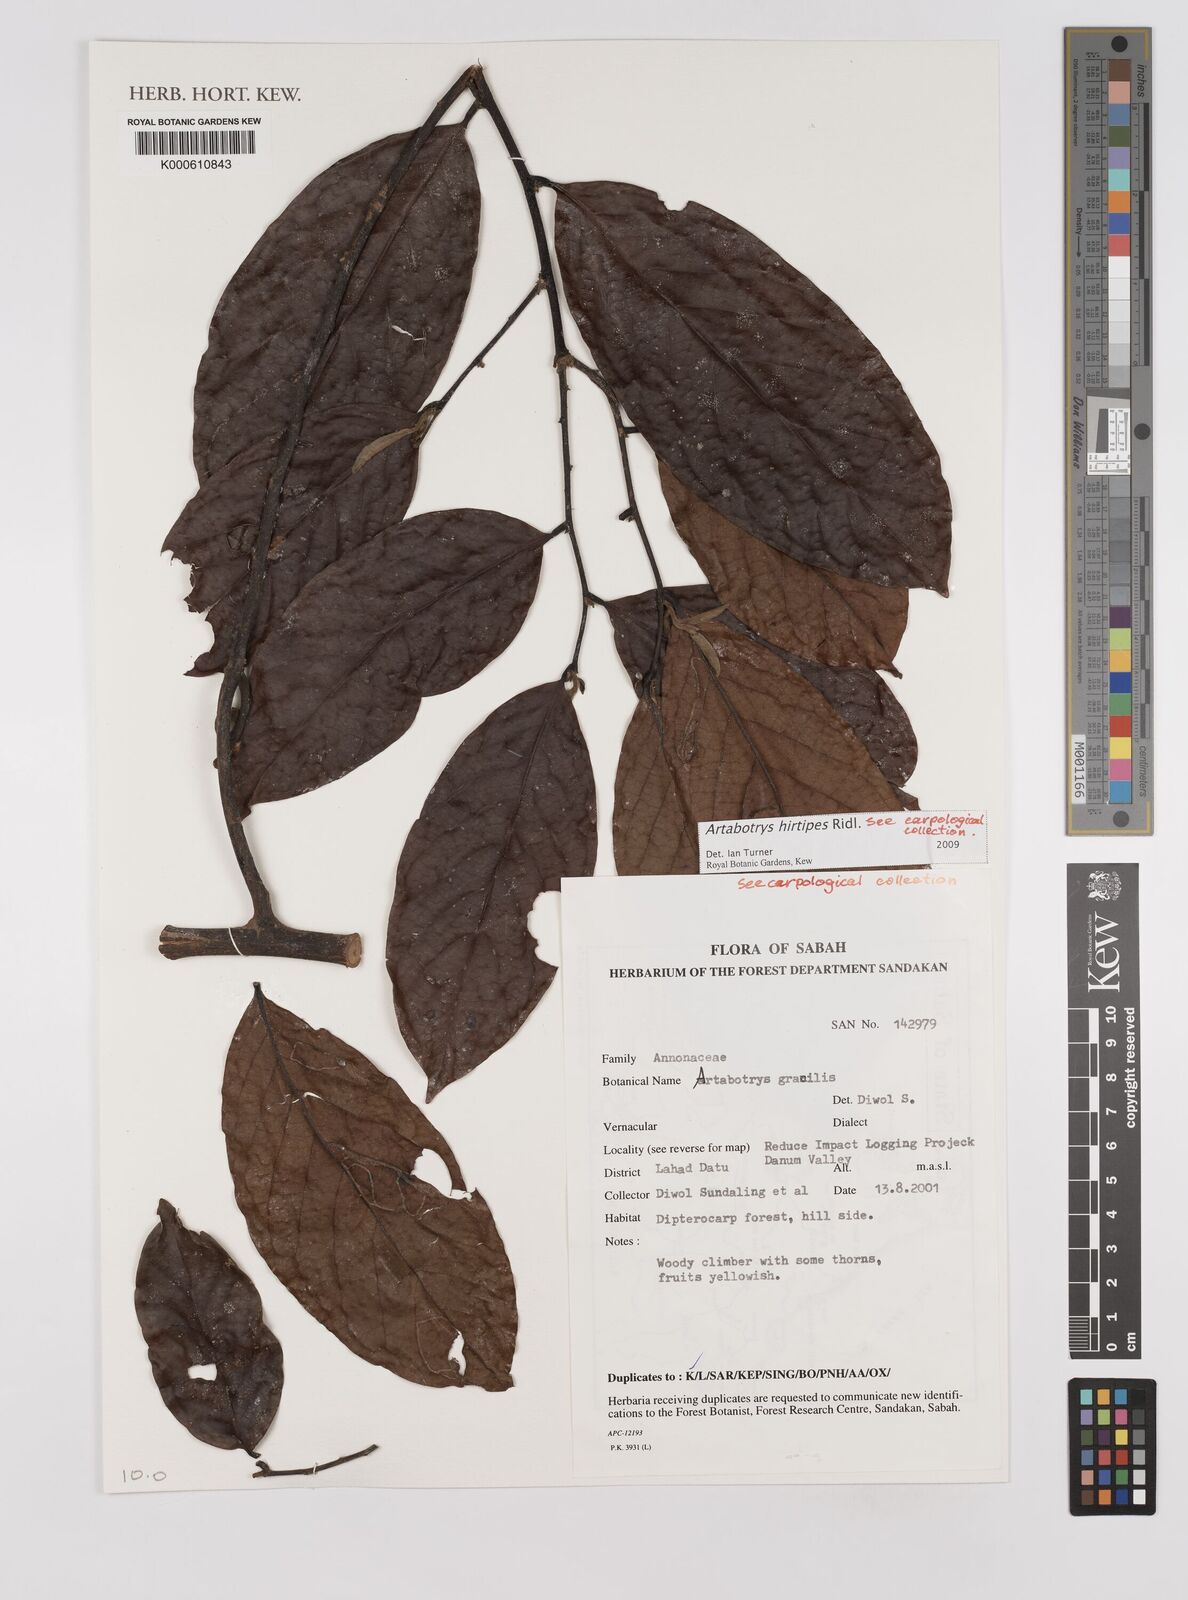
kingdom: Plantae
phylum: Tracheophyta
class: Magnoliopsida
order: Magnoliales
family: Annonaceae
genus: Artabotrys
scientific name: Artabotrys hirtipes
